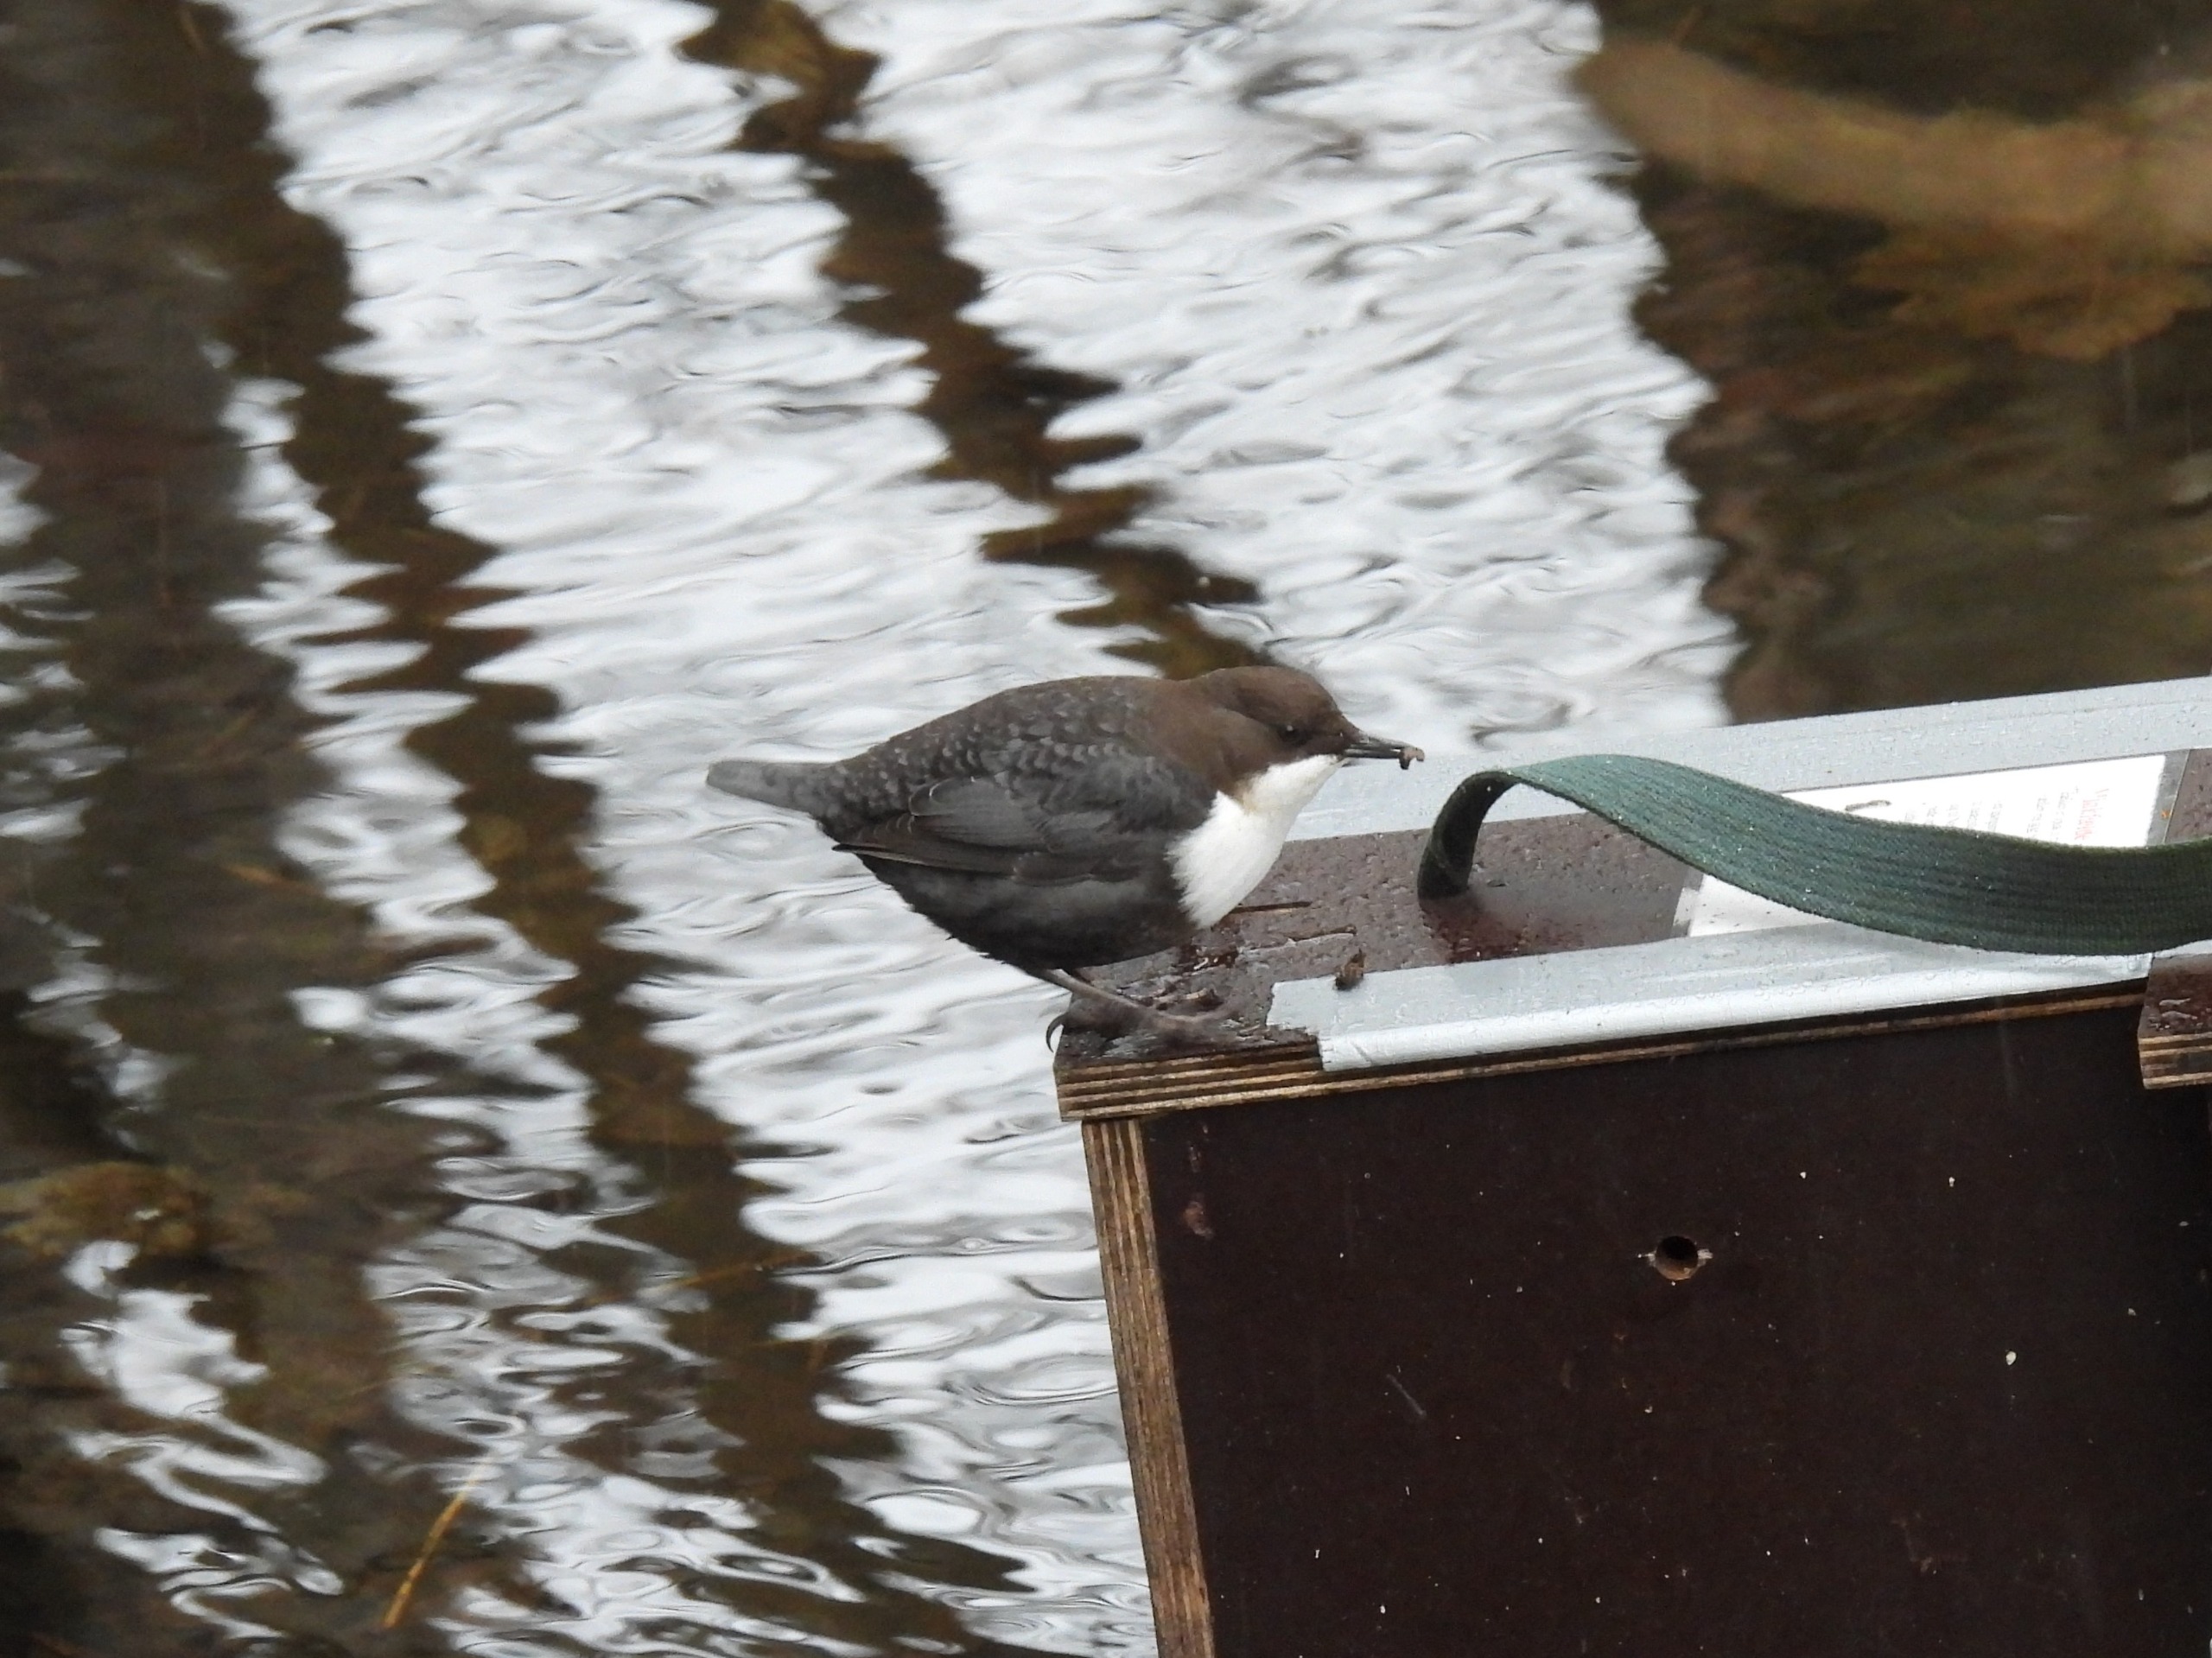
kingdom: Animalia
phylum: Chordata
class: Aves
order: Passeriformes
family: Cinclidae
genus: Cinclus
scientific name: Cinclus cinclus
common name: Vandstær
